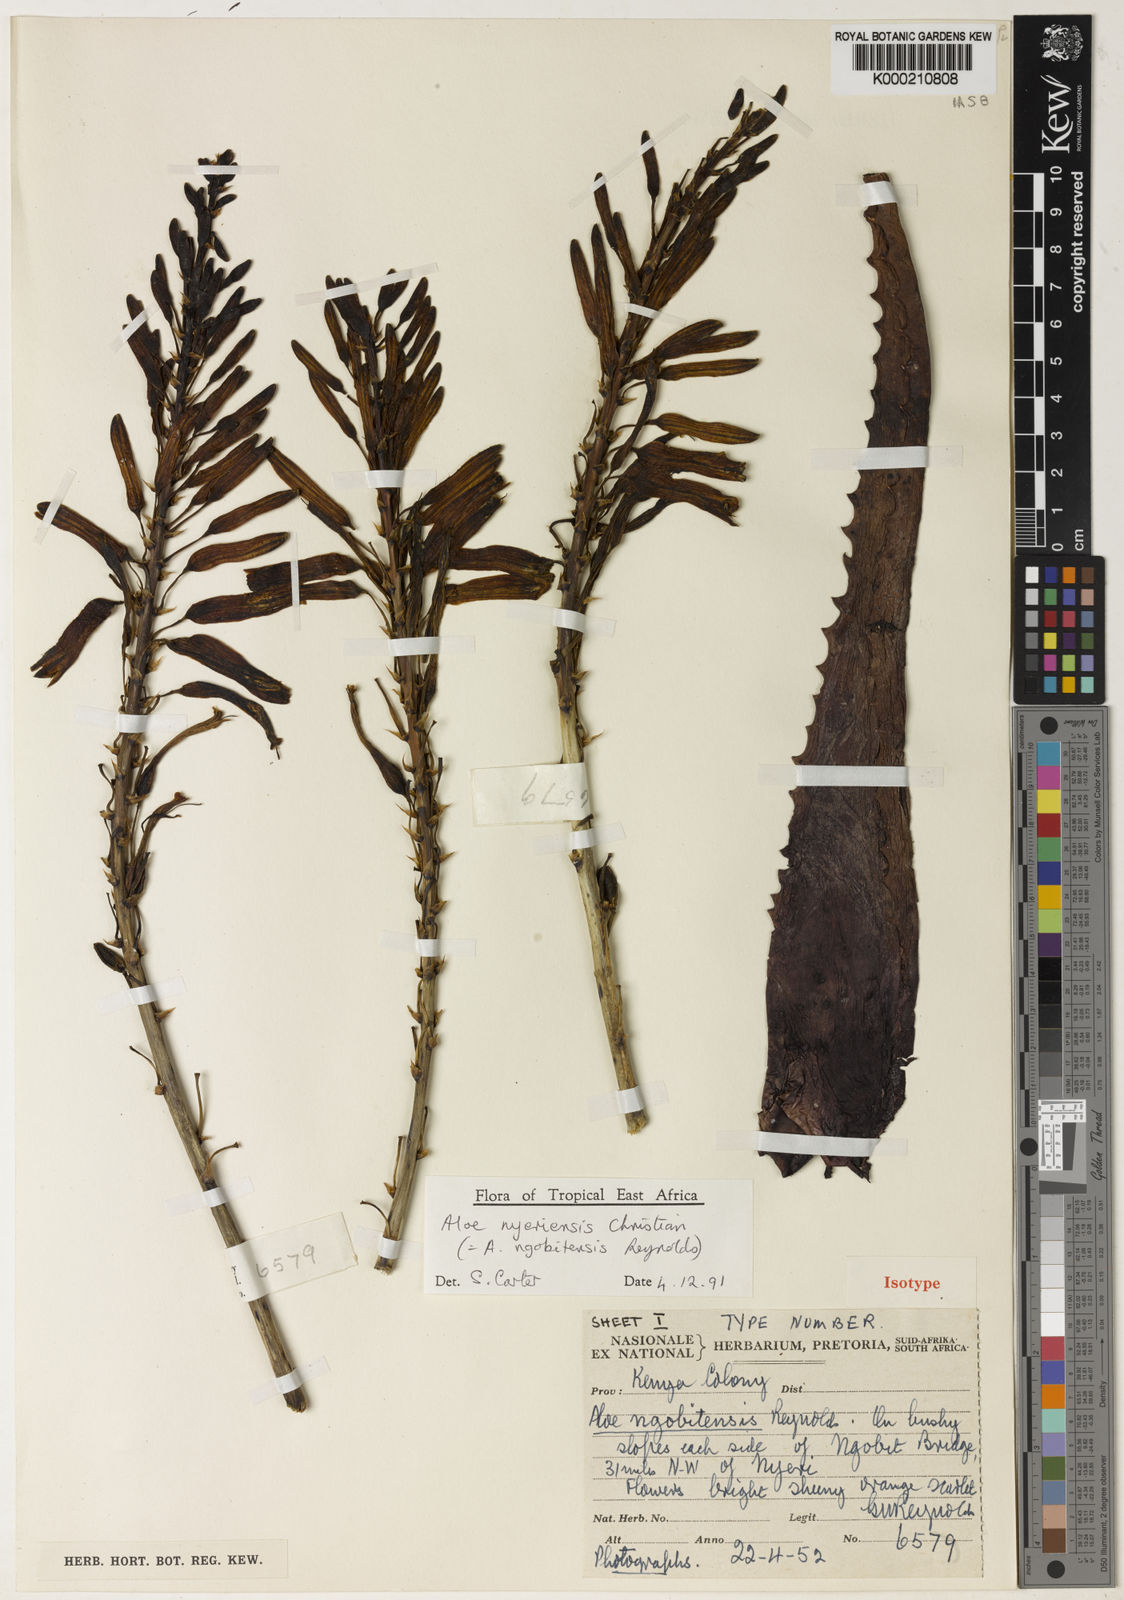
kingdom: Plantae
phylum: Tracheophyta
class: Liliopsida
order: Asparagales
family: Asphodelaceae
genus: Aloe
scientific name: Aloe nyeriensis
